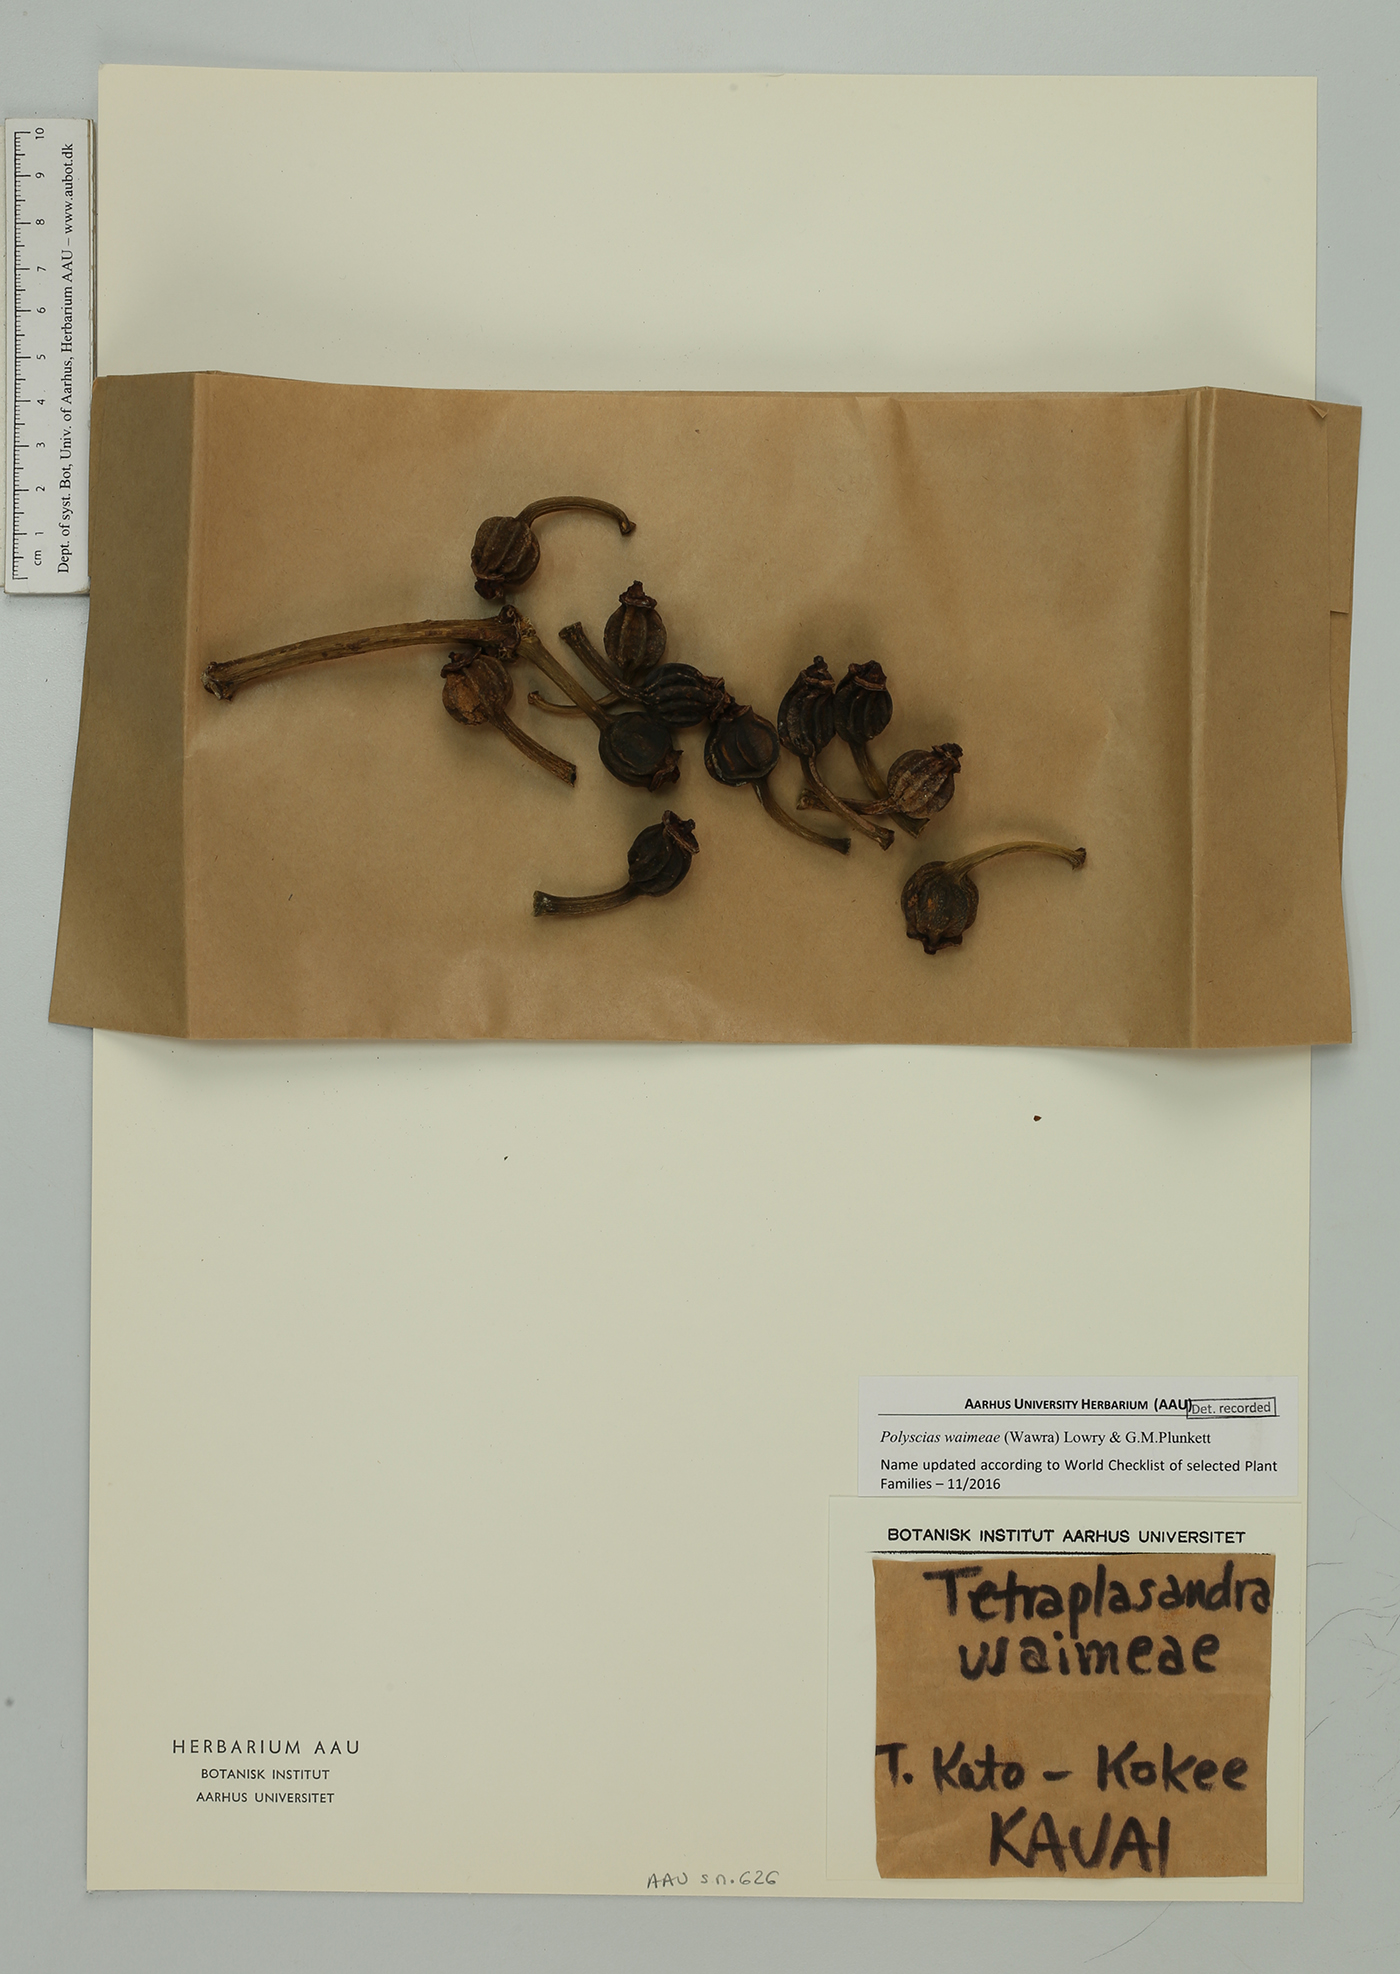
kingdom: Plantae
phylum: Tracheophyta
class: Magnoliopsida
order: Apiales
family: Araliaceae
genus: Polyscias
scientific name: Polyscias waialealae
